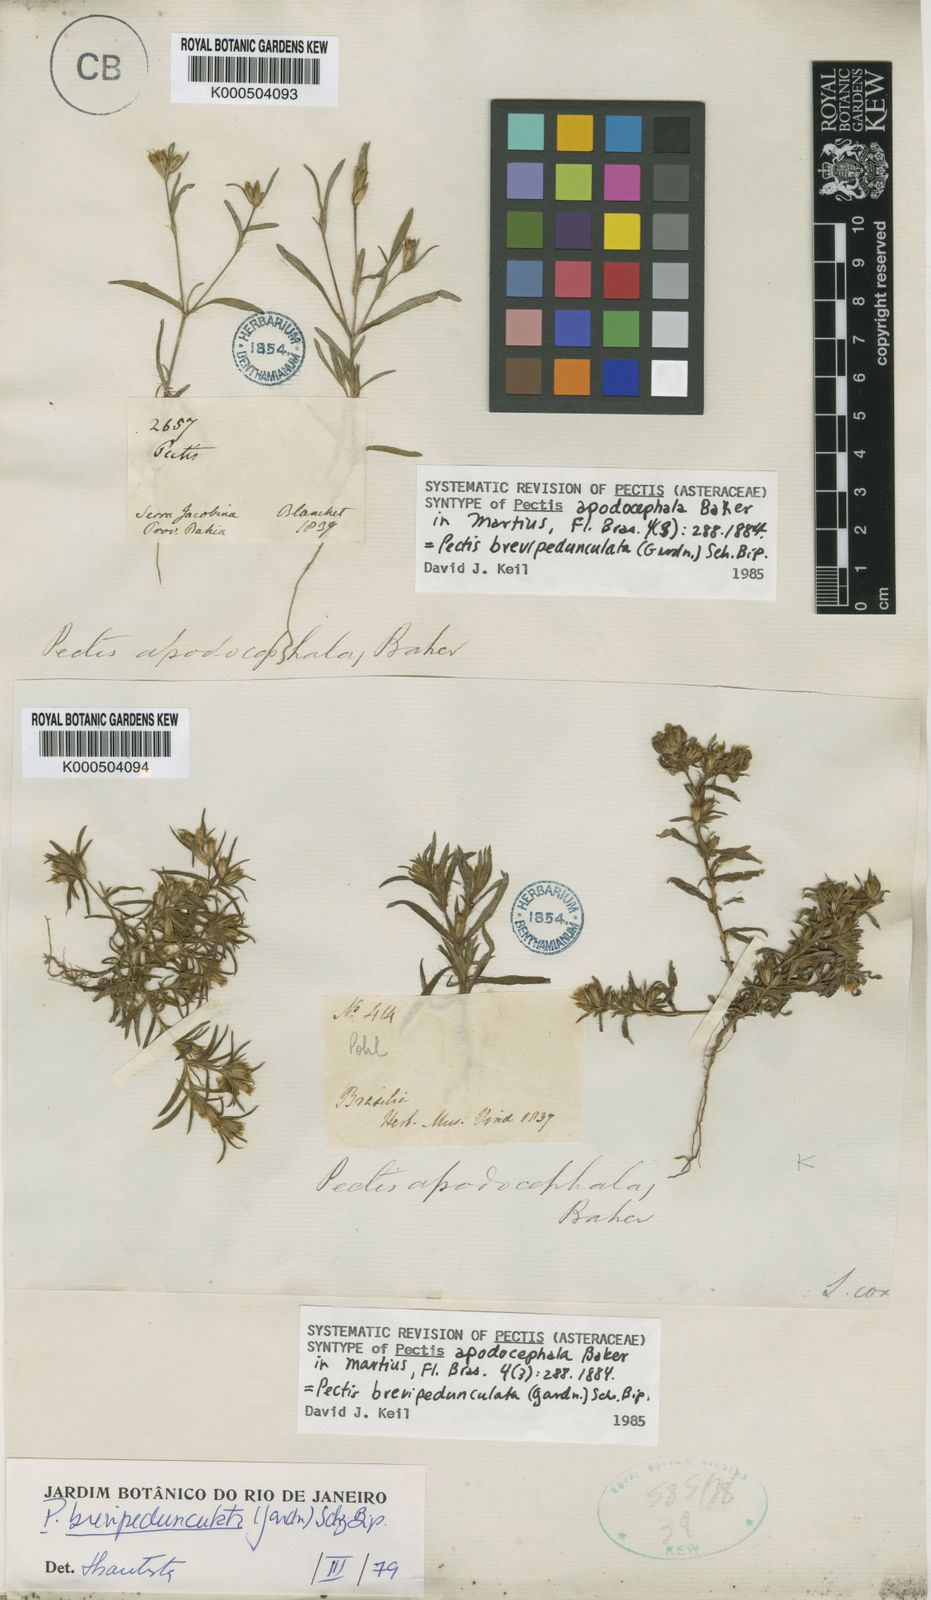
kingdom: Plantae
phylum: Tracheophyta
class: Magnoliopsida
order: Asterales
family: Asteraceae
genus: Pectis
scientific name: Pectis brevipedunculata
